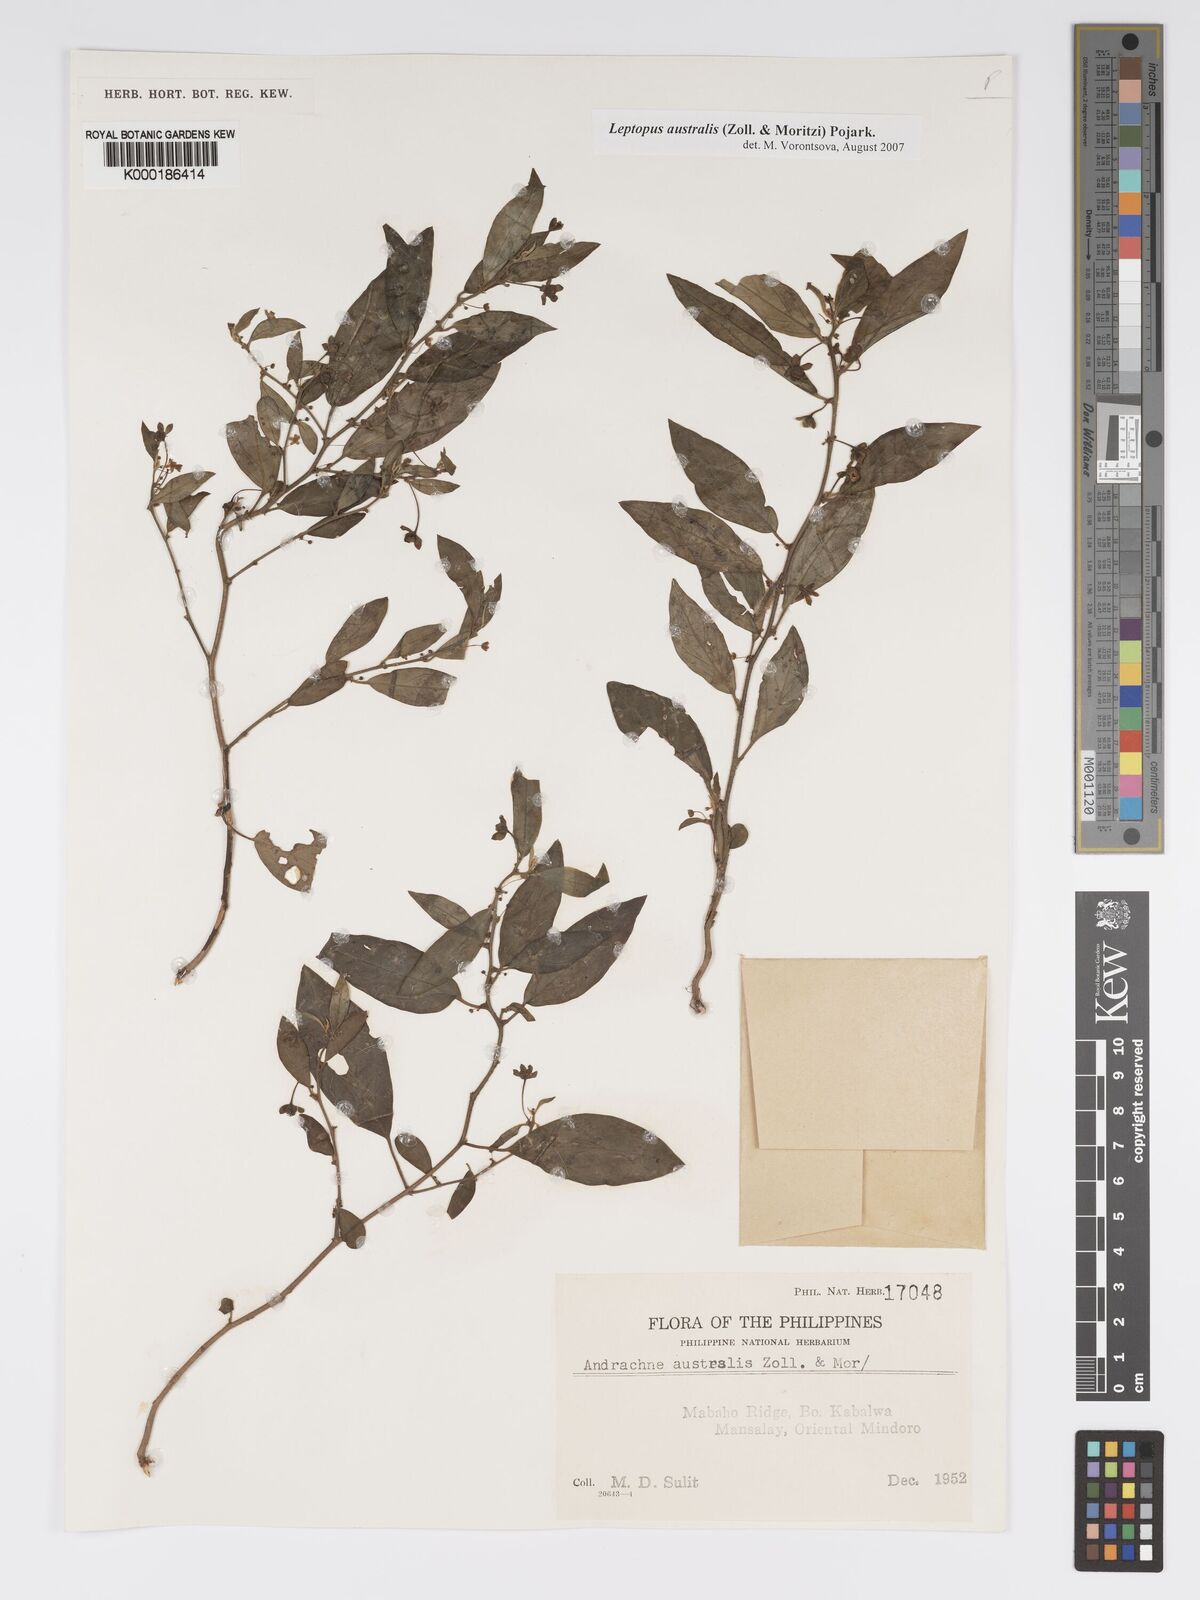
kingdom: Plantae
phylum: Tracheophyta
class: Magnoliopsida
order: Malpighiales
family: Phyllanthaceae
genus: Leptopus
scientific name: Leptopus australis
